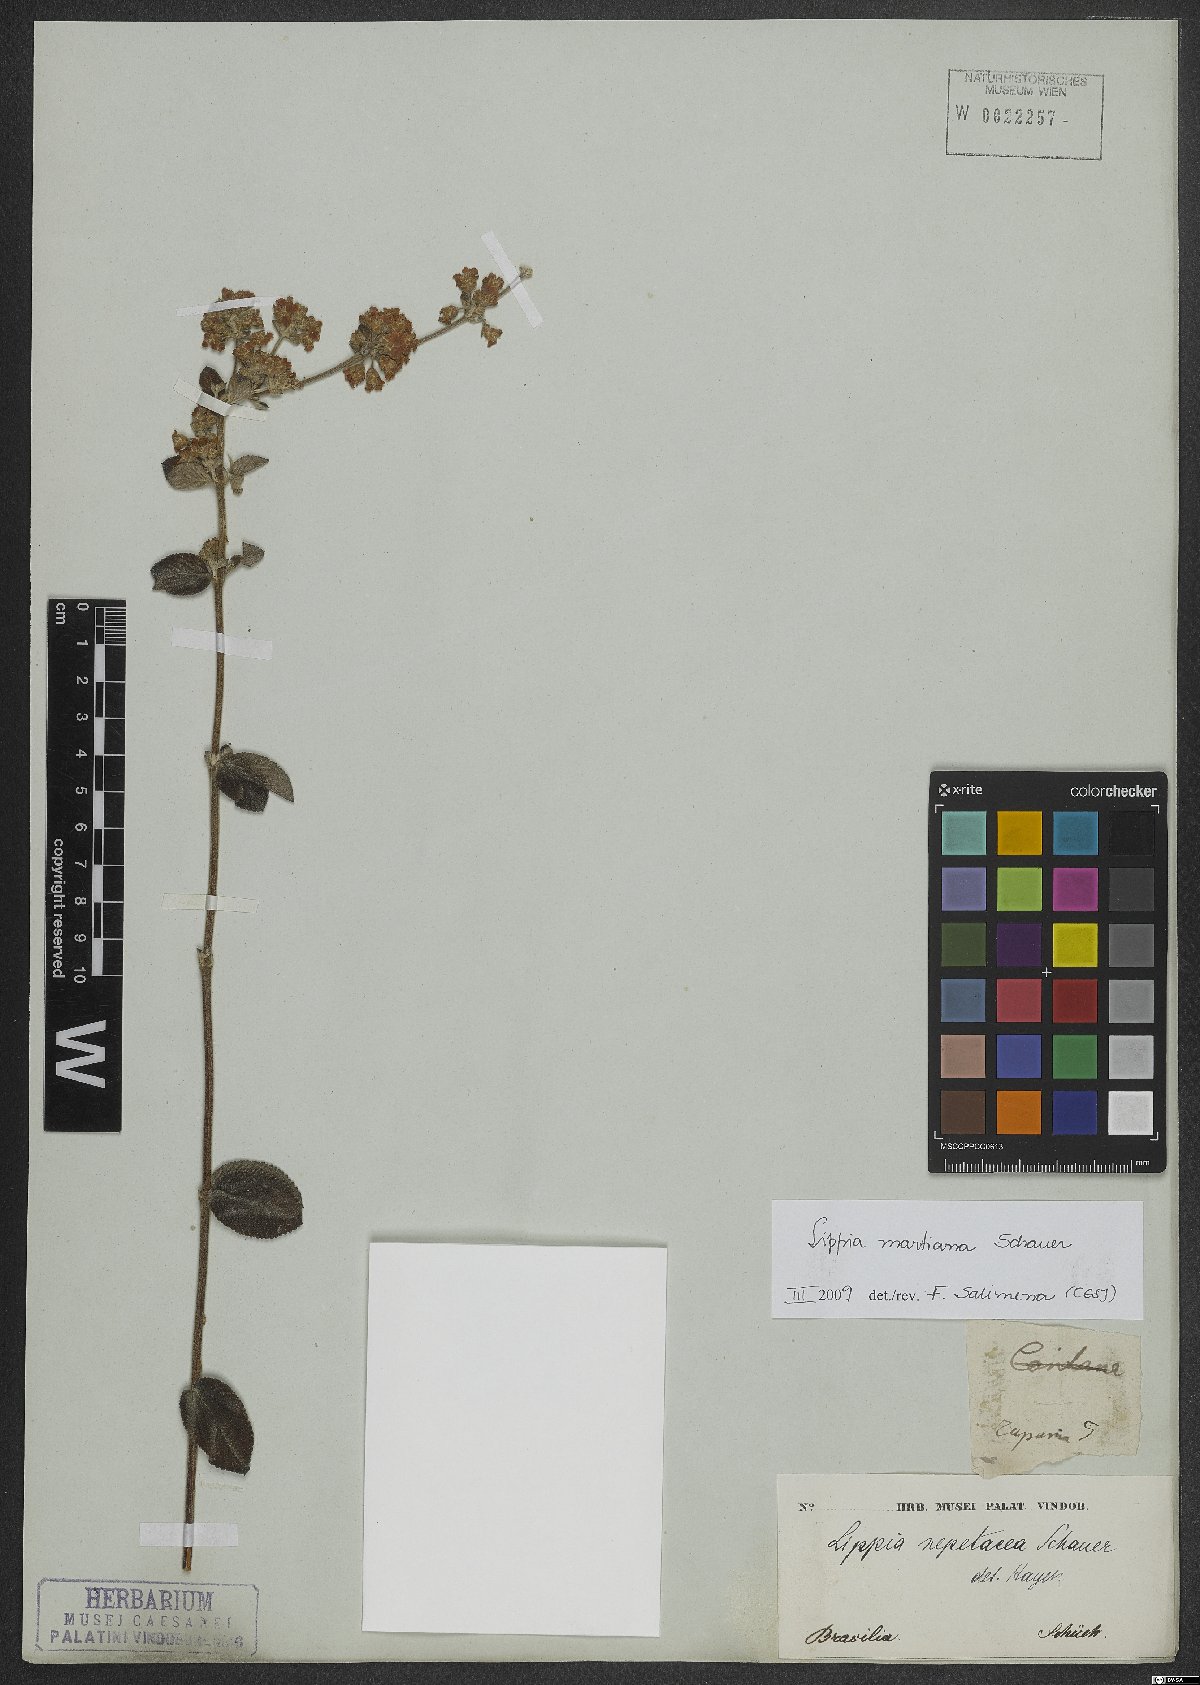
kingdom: Plantae
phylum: Tracheophyta
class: Magnoliopsida
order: Lamiales
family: Verbenaceae
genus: Lippia
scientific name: Lippia martiana
